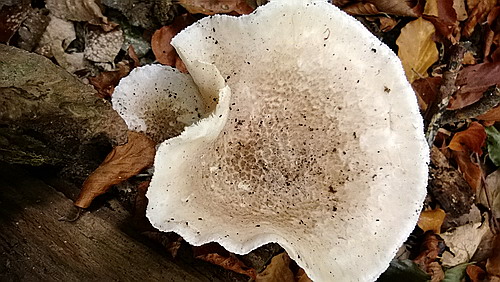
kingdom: Fungi
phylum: Basidiomycota
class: Agaricomycetes
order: Agaricales
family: Pleurotaceae
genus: Pleurotus
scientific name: Pleurotus dryinus
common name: korkagtig østershat
